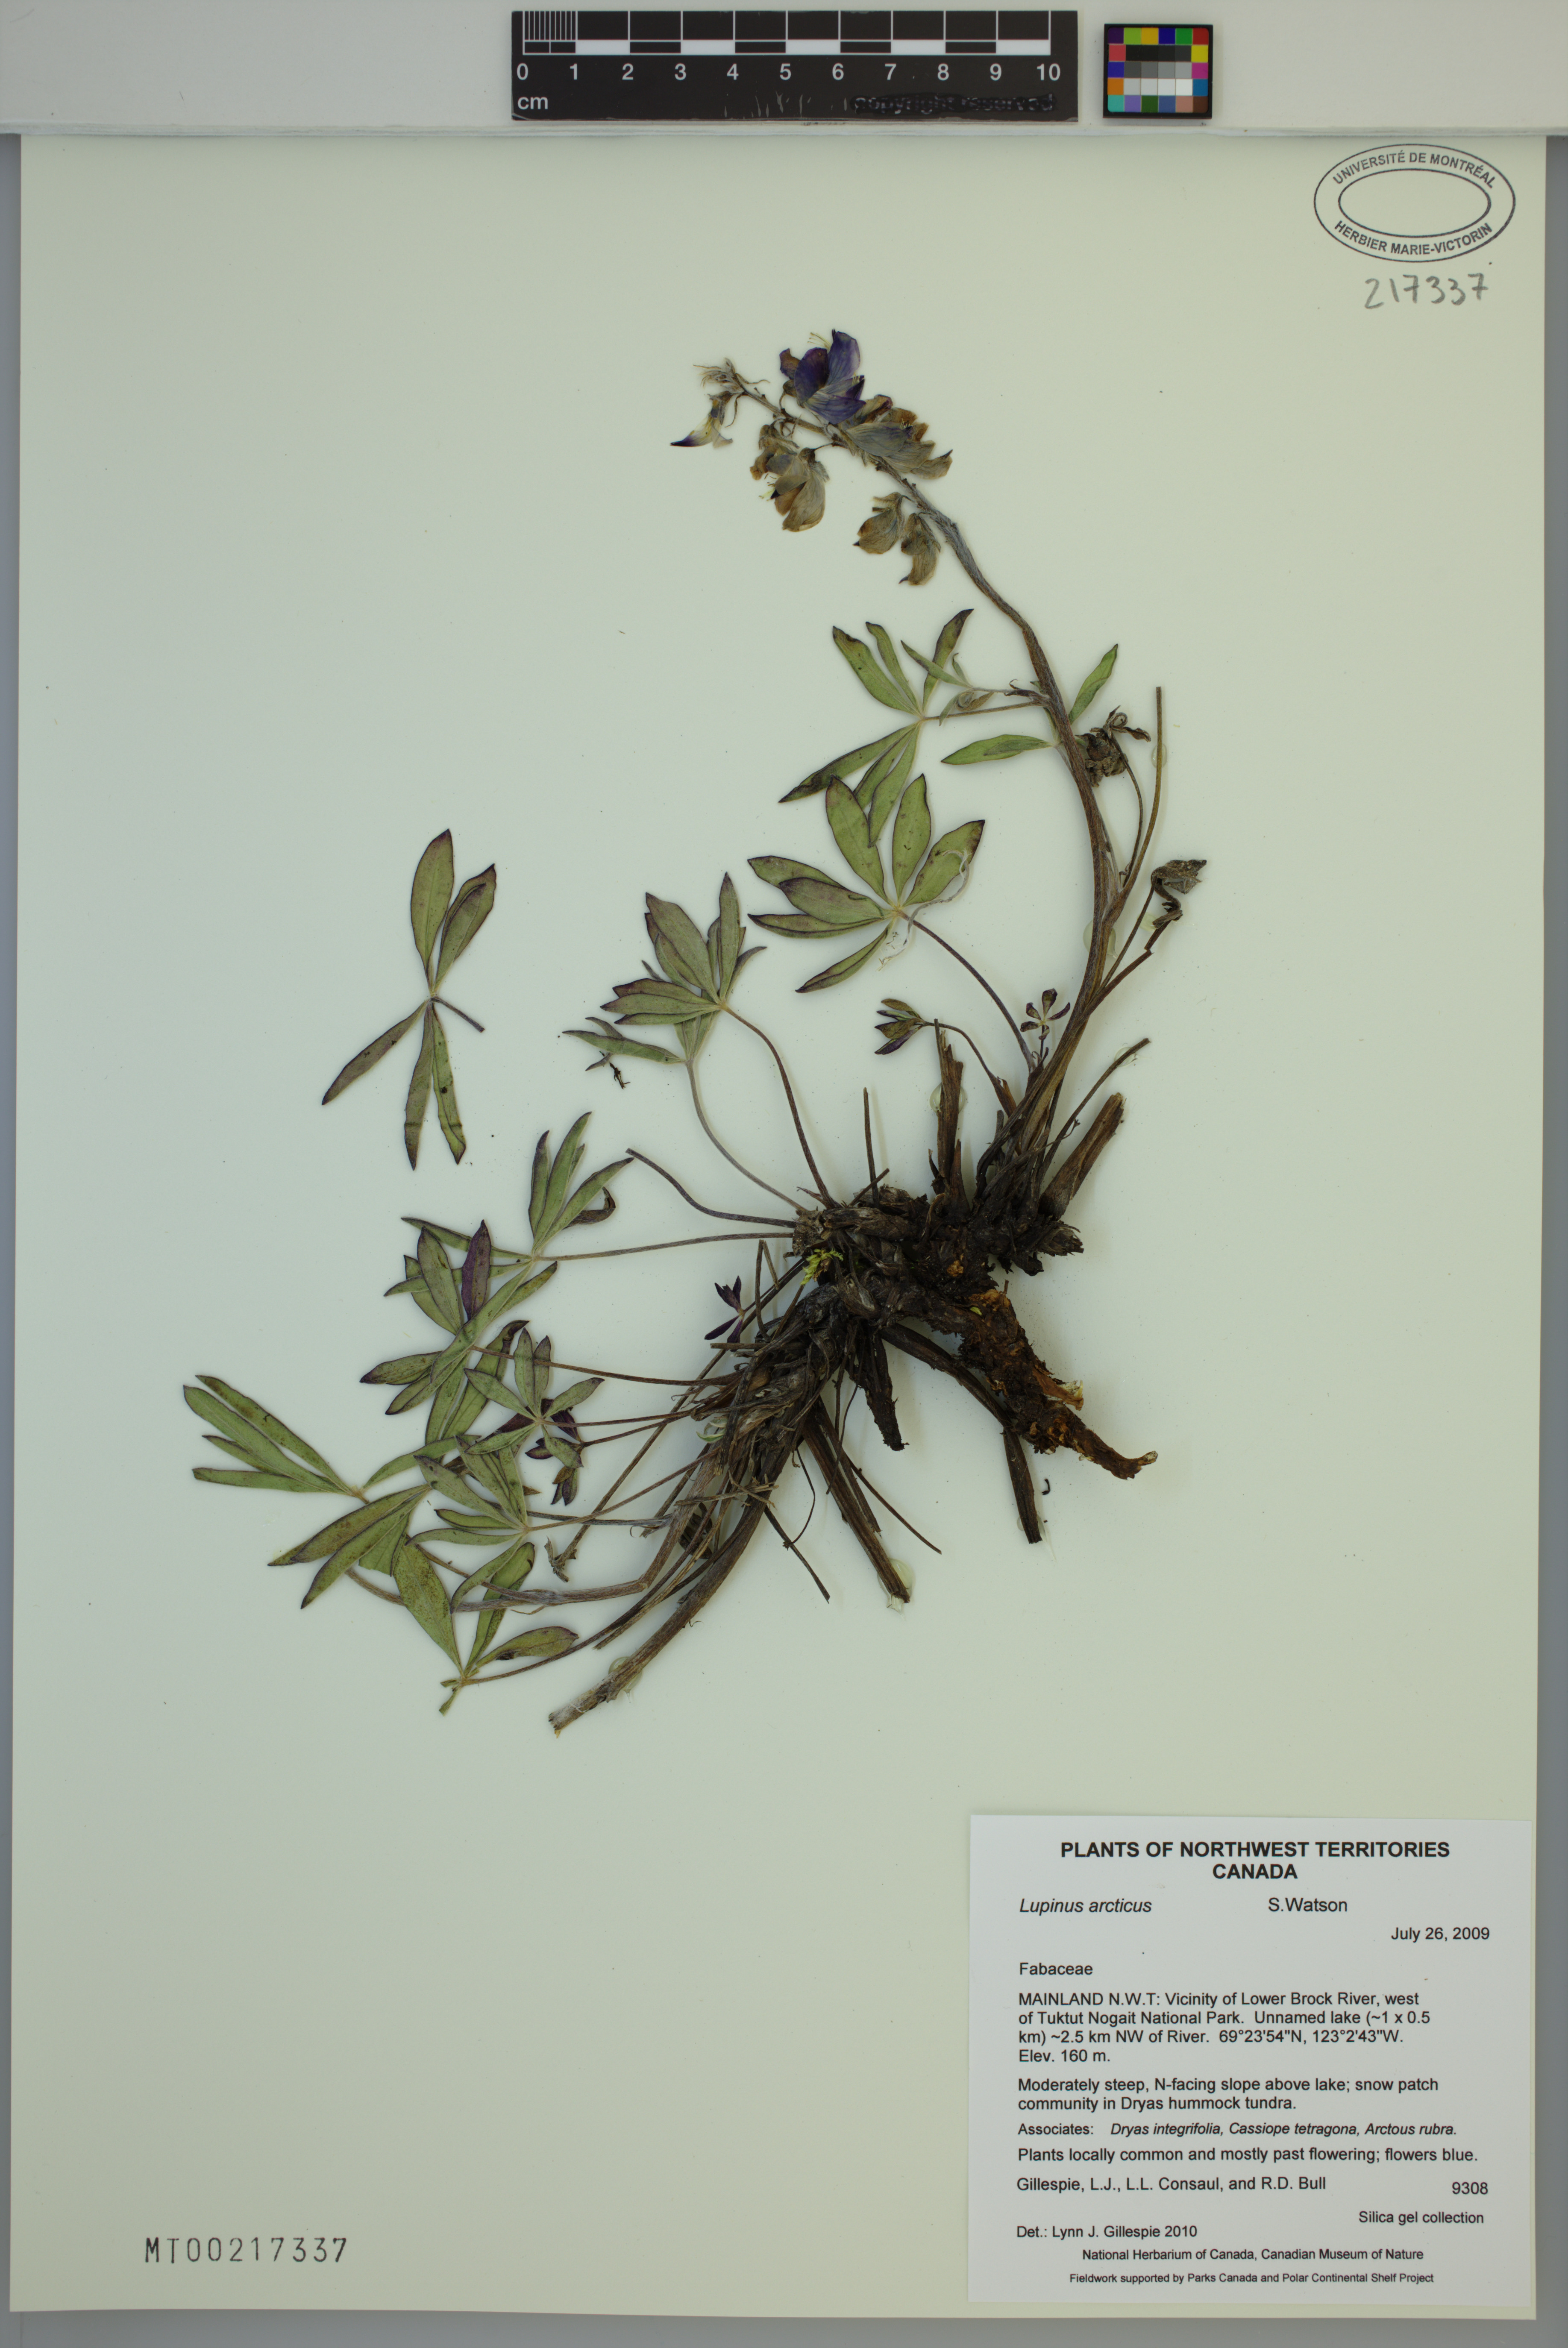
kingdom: Plantae
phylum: Tracheophyta
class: Magnoliopsida
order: Fabales
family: Fabaceae
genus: Lupinus
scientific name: Lupinus arcticus
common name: Arctic lupine
